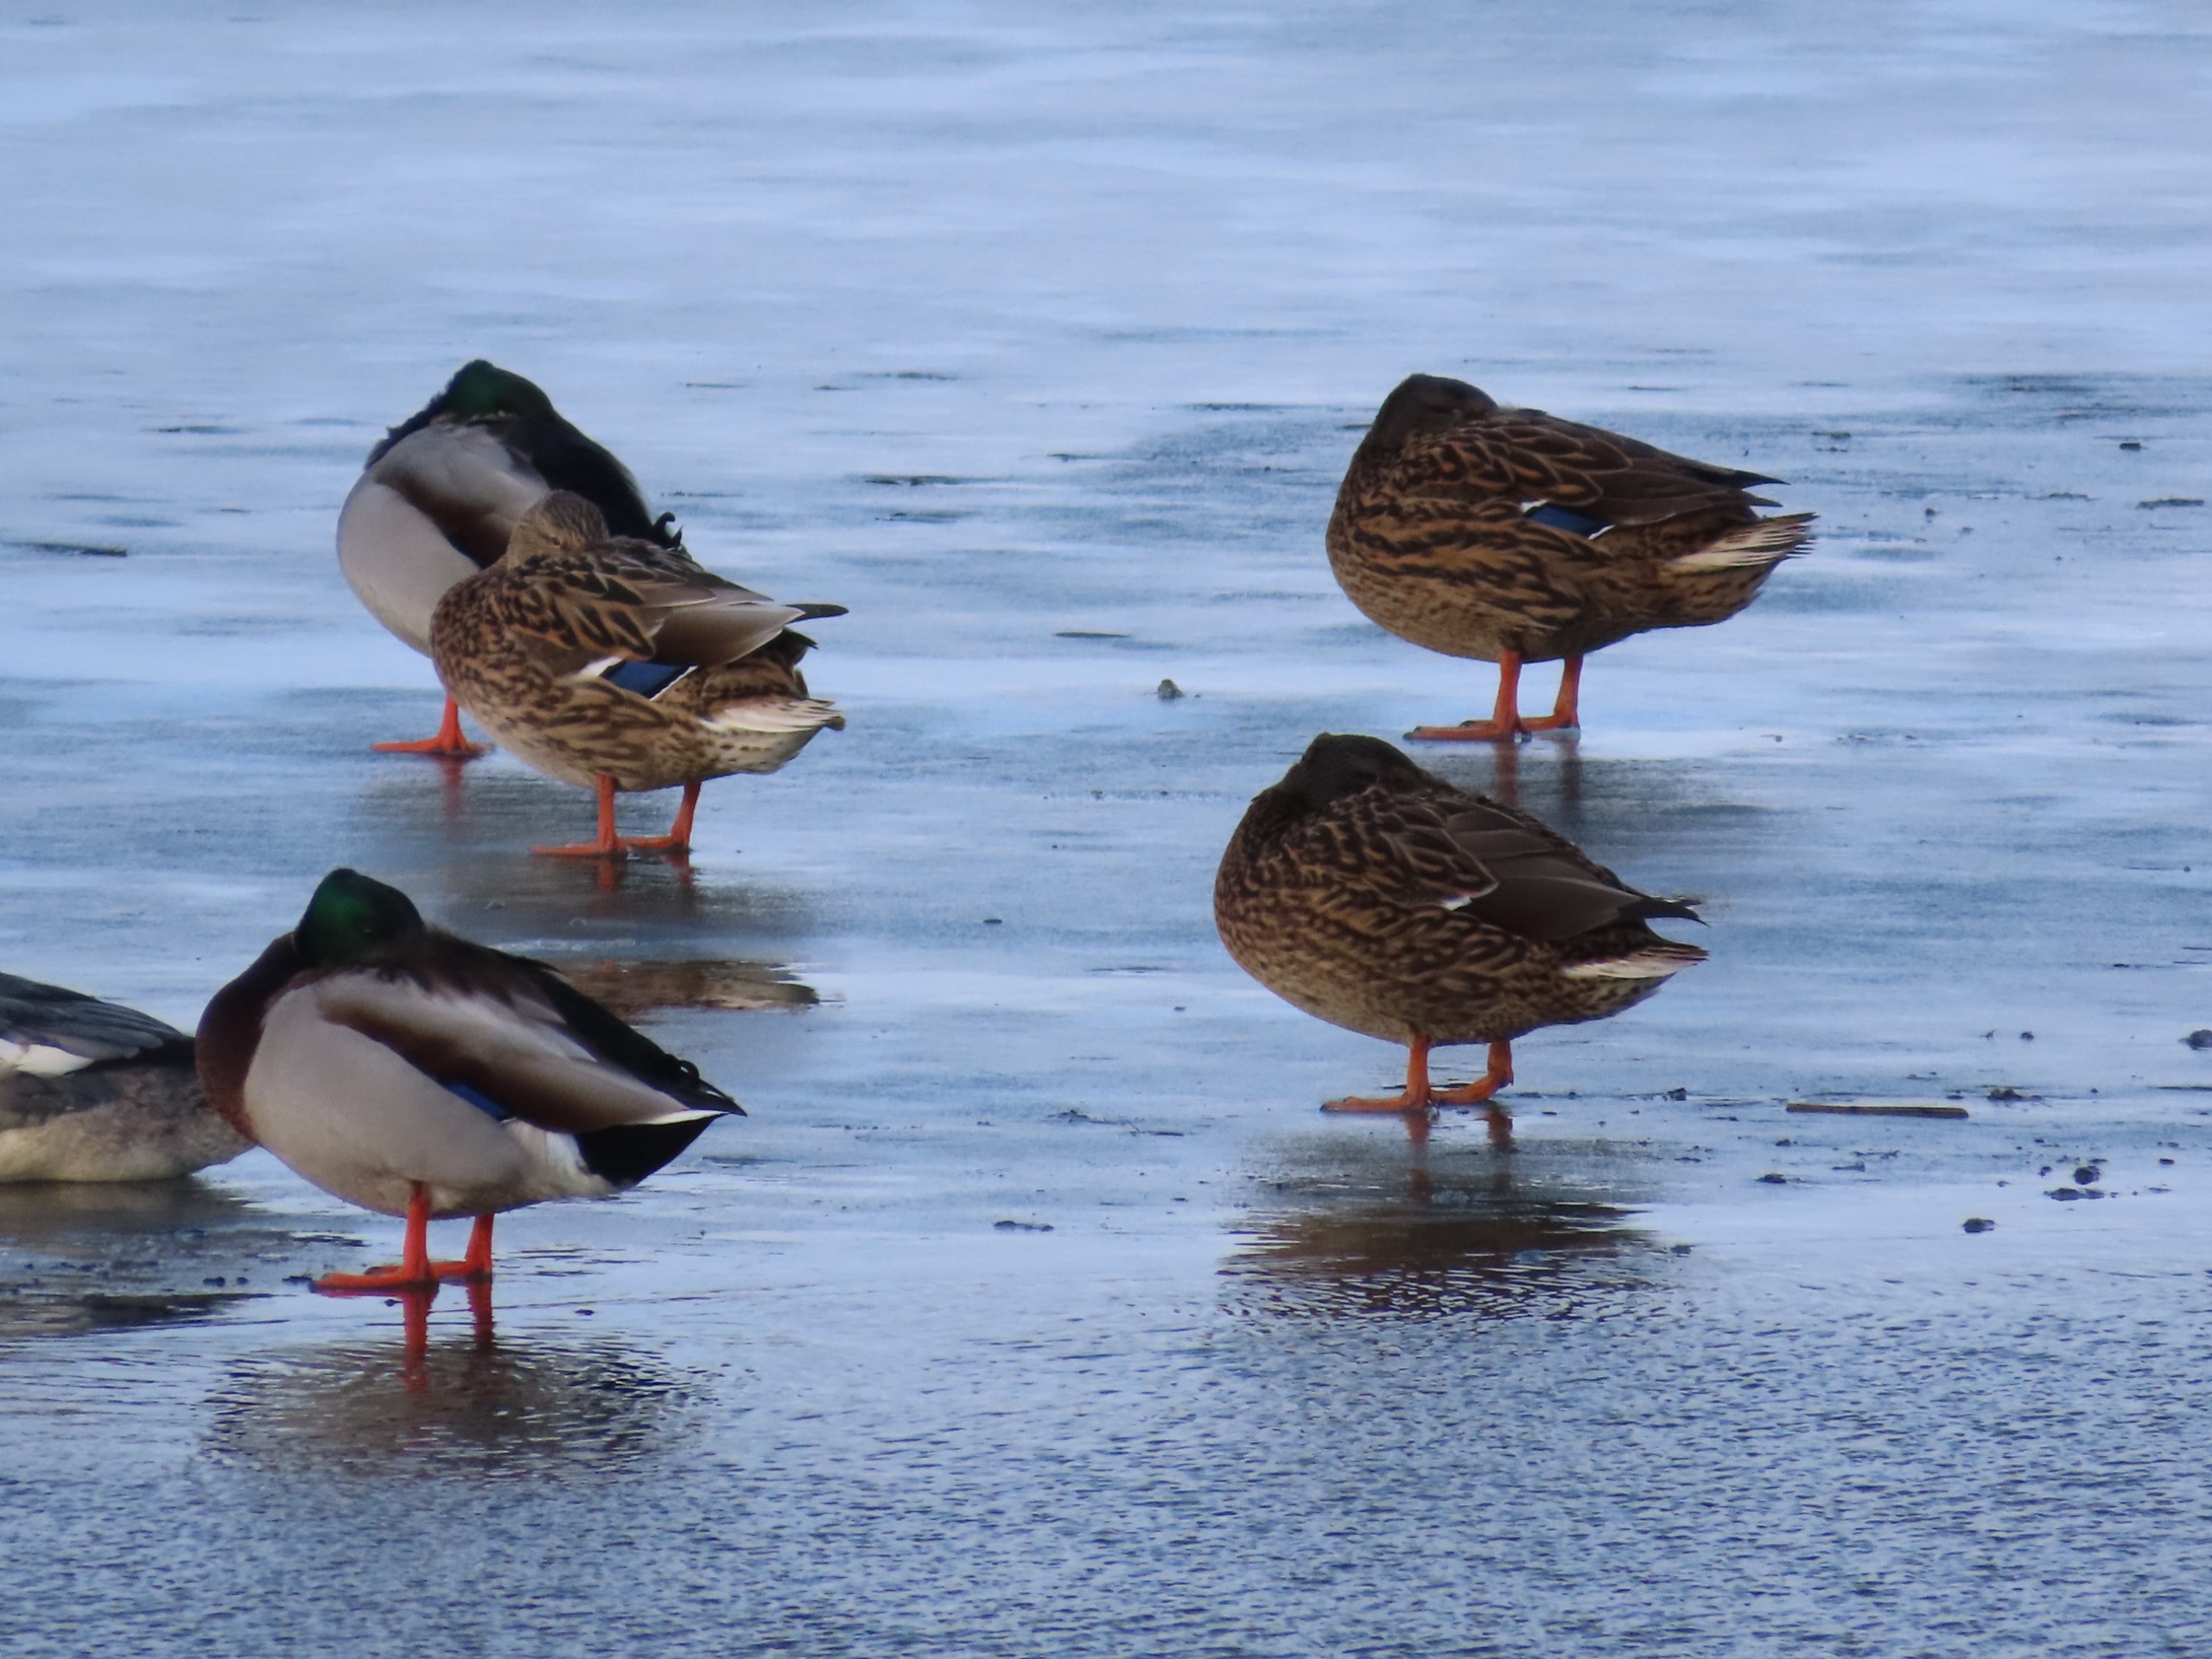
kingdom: Animalia
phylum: Chordata
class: Aves
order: Anseriformes
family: Anatidae
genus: Anas
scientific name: Anas platyrhynchos
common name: Gråand
